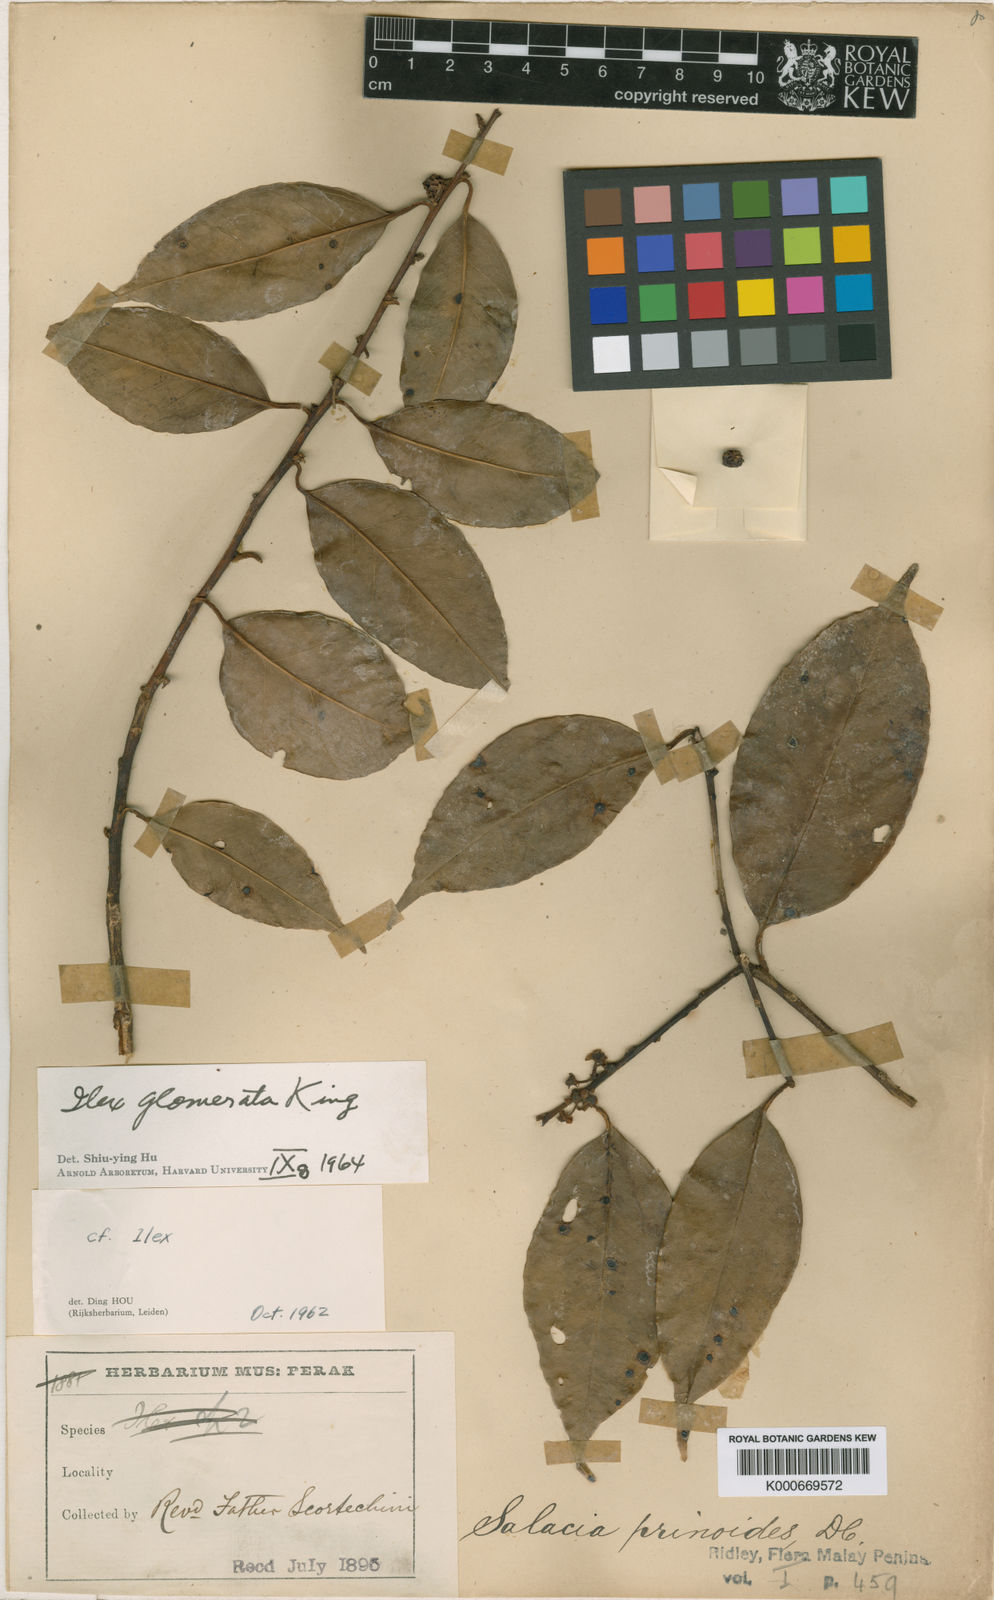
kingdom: Plantae
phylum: Tracheophyta
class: Magnoliopsida
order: Aquifoliales
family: Aquifoliaceae
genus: Ilex
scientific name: Ilex glomerata
